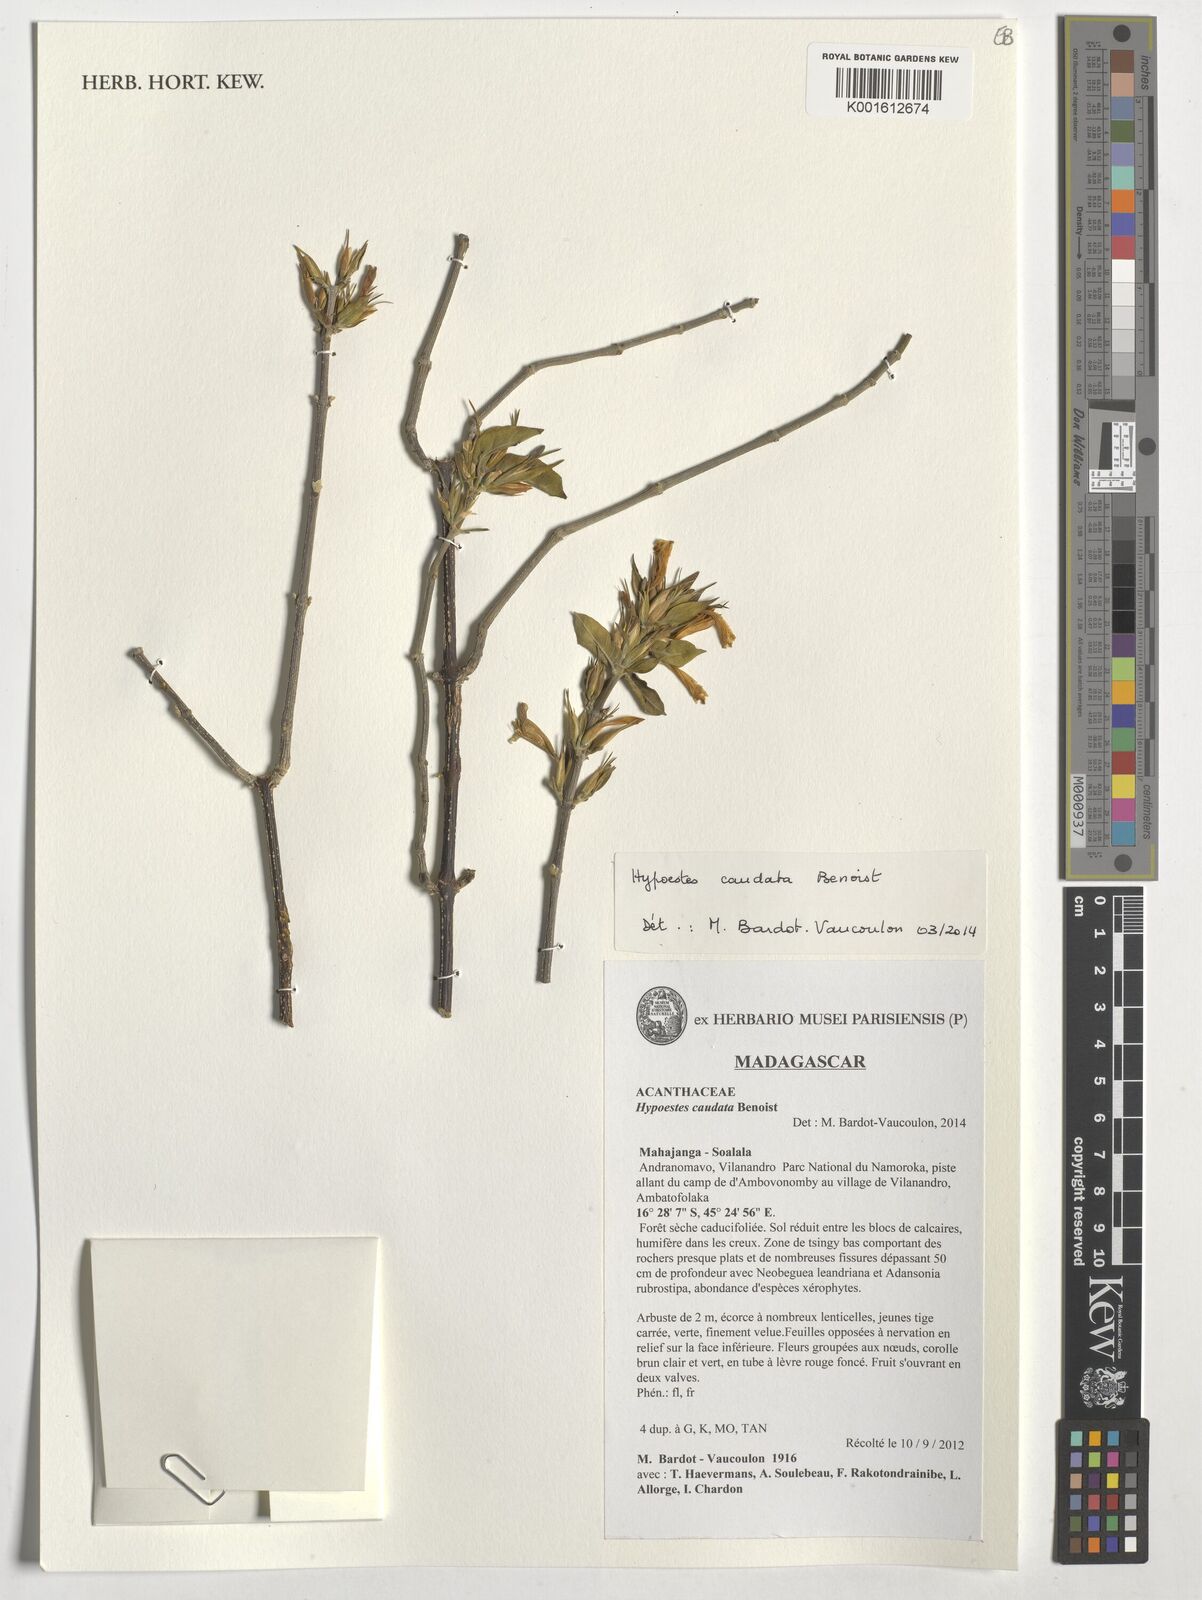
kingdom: Plantae
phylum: Tracheophyta
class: Magnoliopsida
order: Lamiales
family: Acanthaceae
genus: Hypoestes
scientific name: Hypoestes caudata
